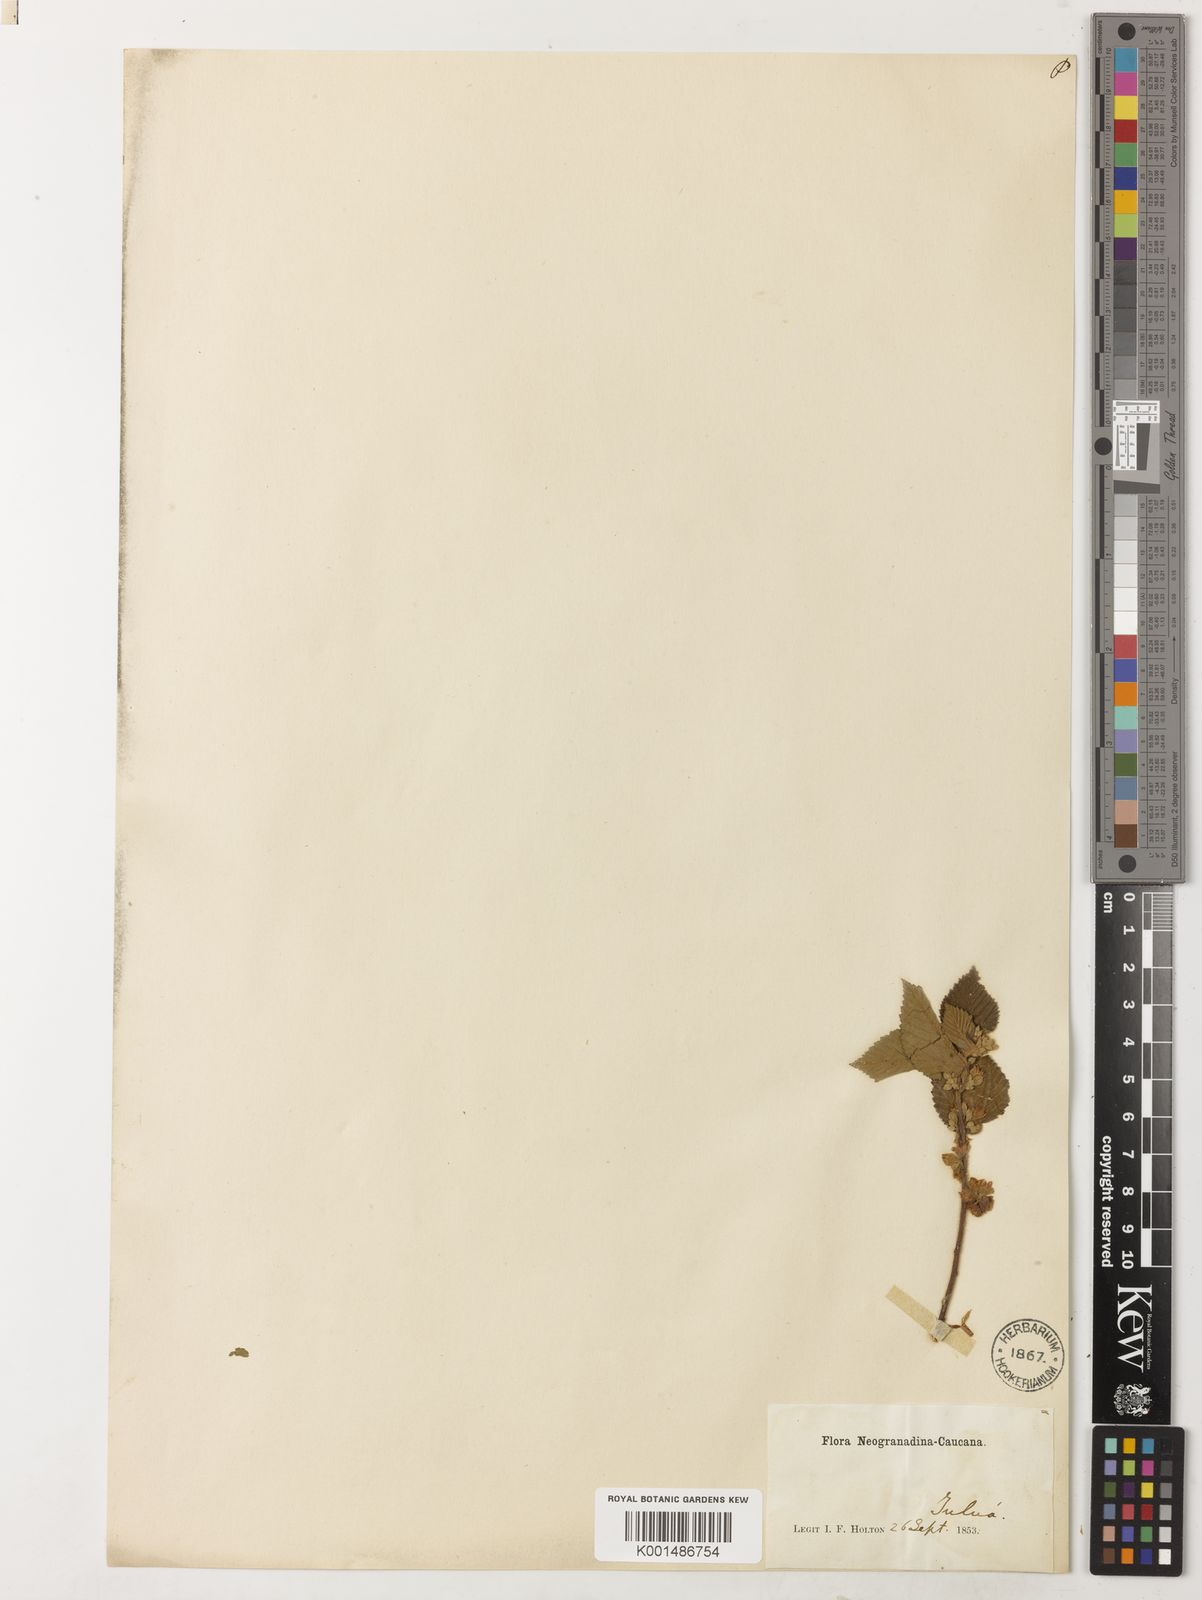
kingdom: Plantae
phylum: Tracheophyta
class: Magnoliopsida
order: Malvales
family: Malvaceae
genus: Melochia
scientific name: Melochia tomentosa
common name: Black torch
